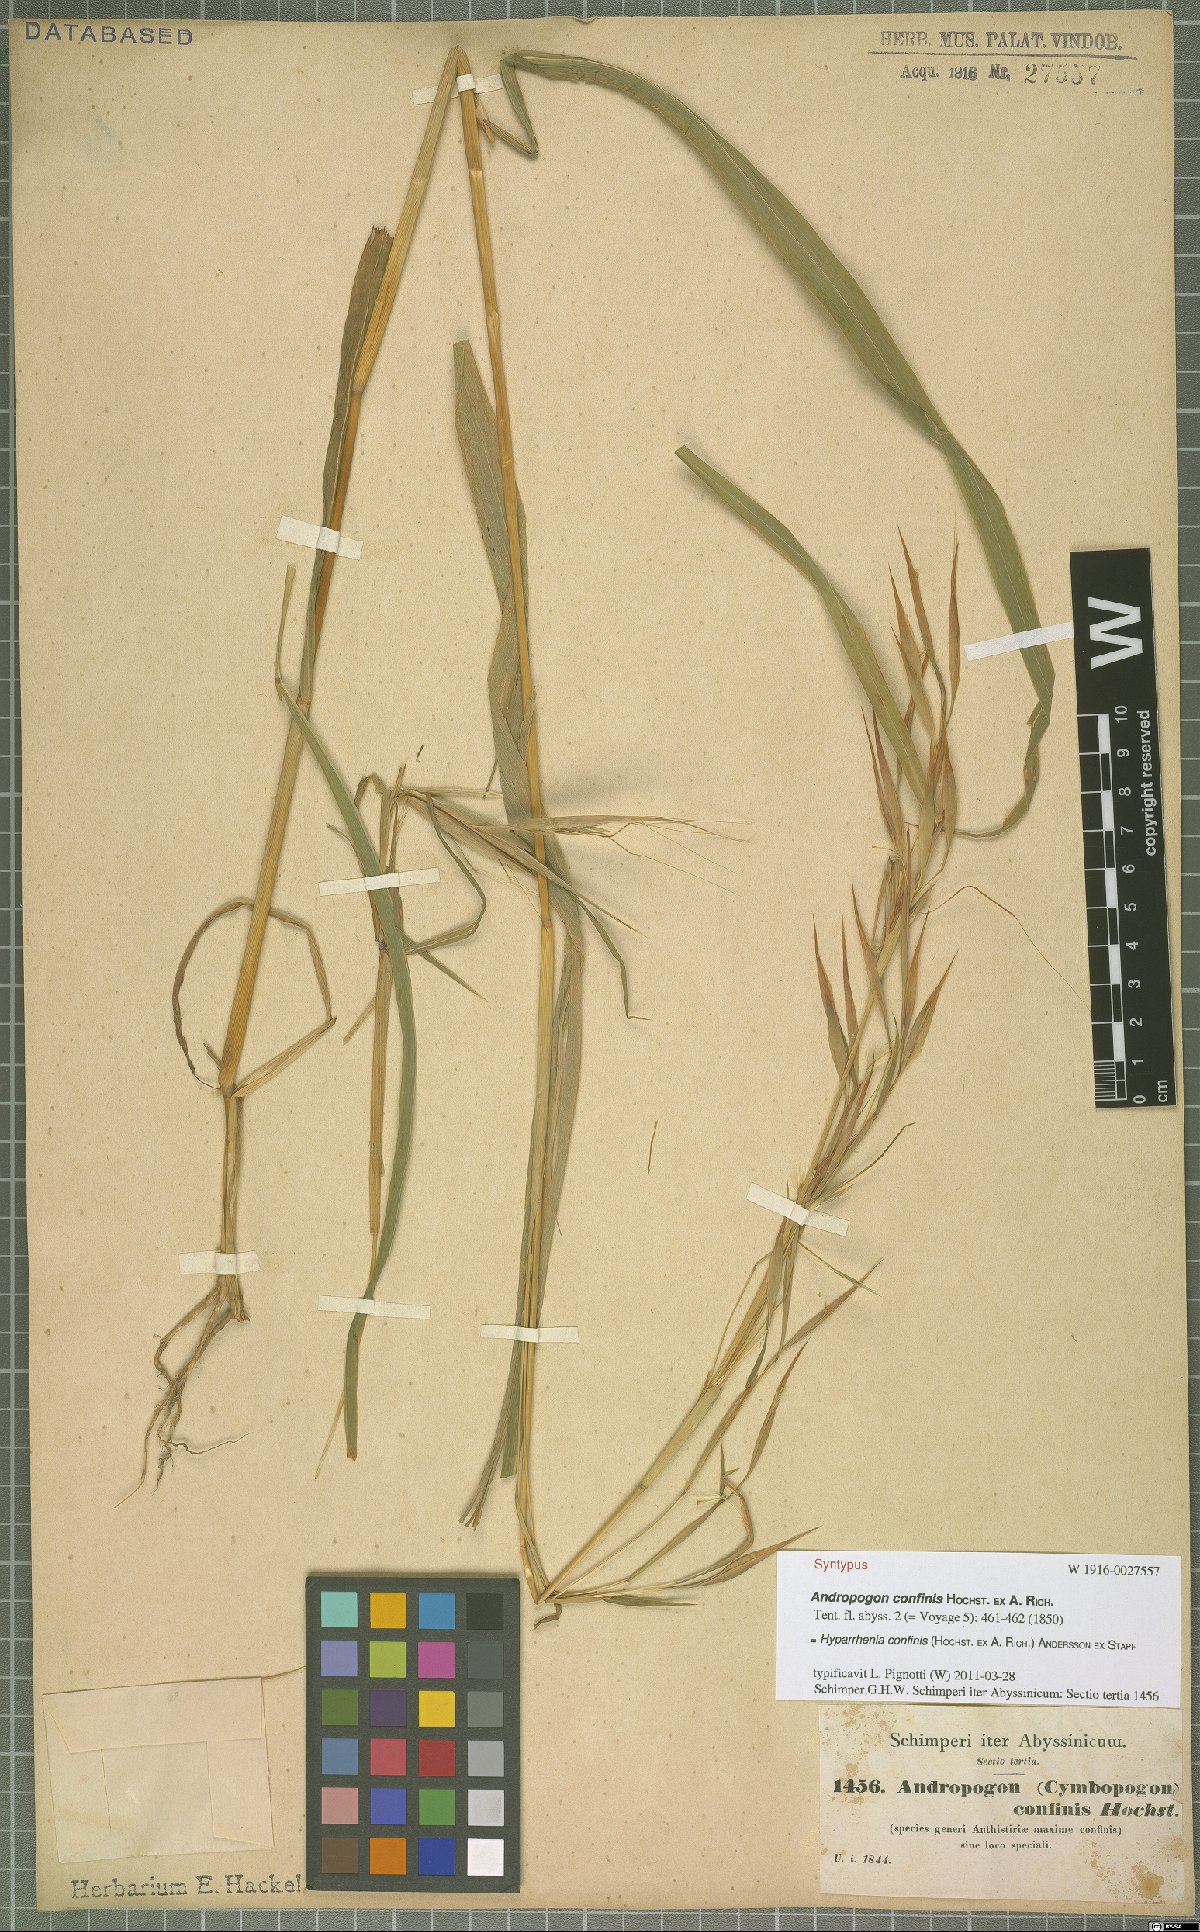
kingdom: Plantae
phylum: Tracheophyta
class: Liliopsida
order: Poales
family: Poaceae
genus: Hyparrhenia
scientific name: Hyparrhenia confinis
